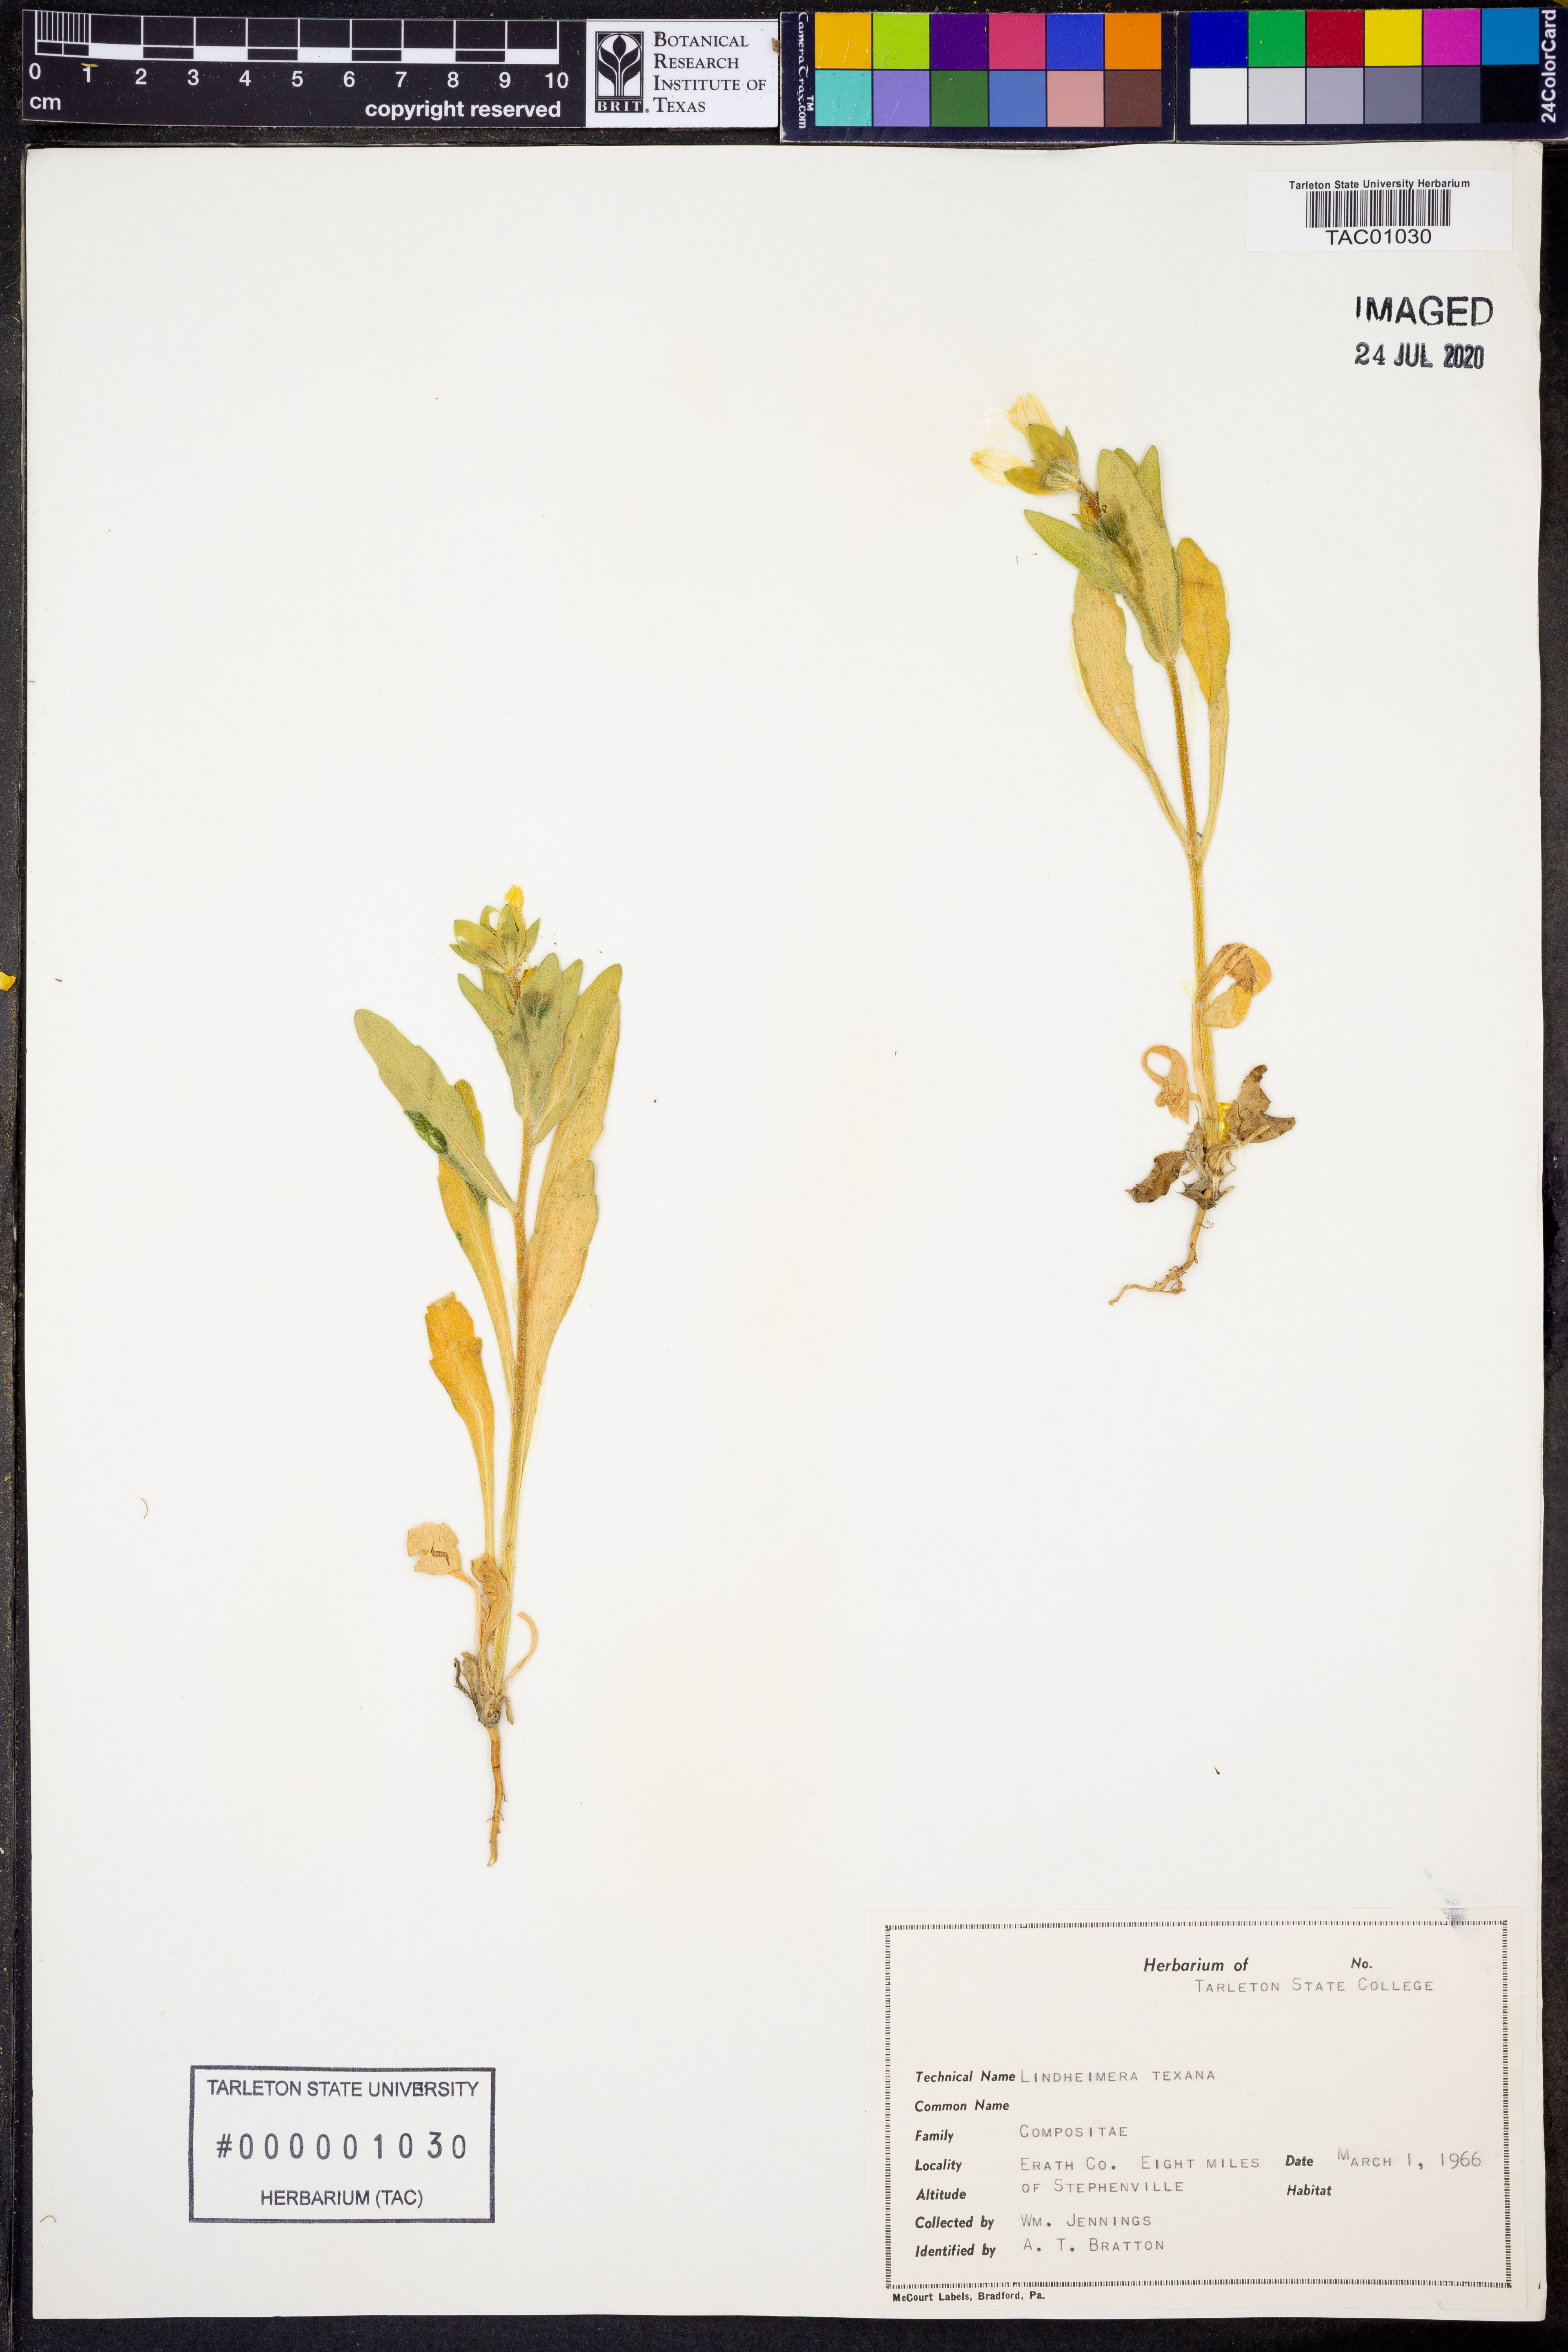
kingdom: Plantae
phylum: Tracheophyta
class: Magnoliopsida
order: Asterales
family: Asteraceae
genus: Lindheimera
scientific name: Lindheimera texana
